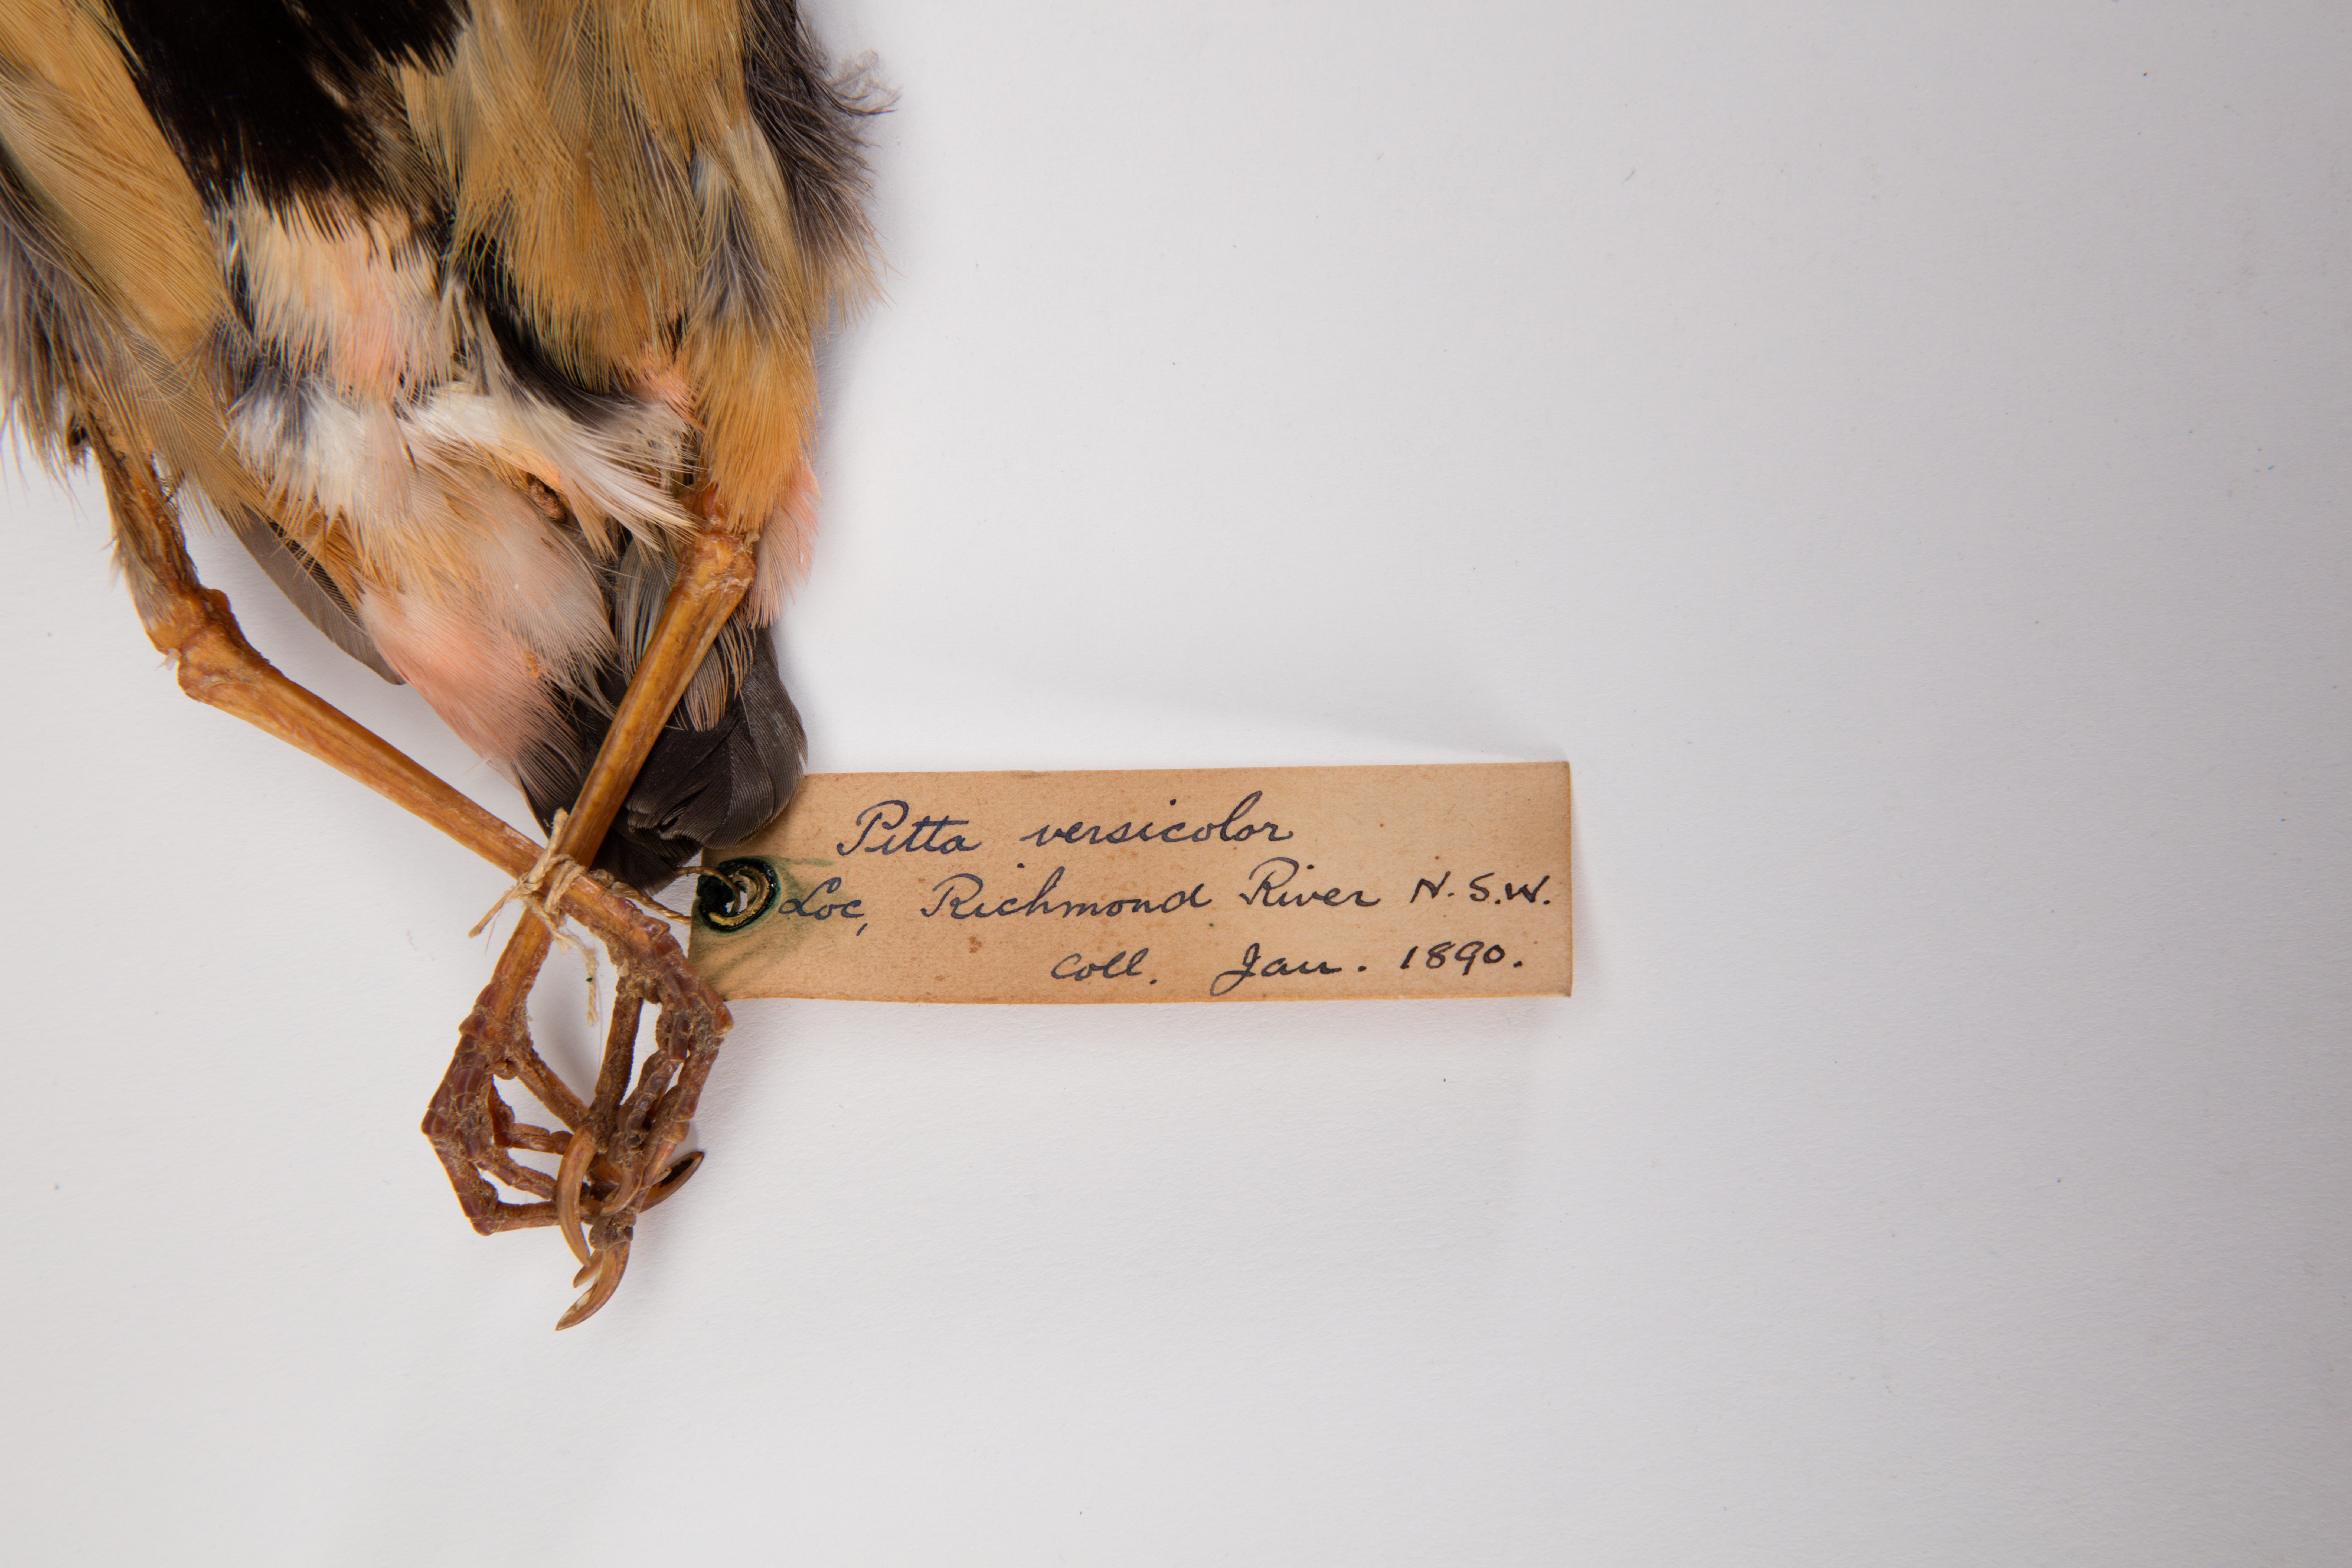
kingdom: Animalia
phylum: Chordata
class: Aves
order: Passeriformes
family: Pittidae
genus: Pitta
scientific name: Pitta versicolor
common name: Noisy pitta
